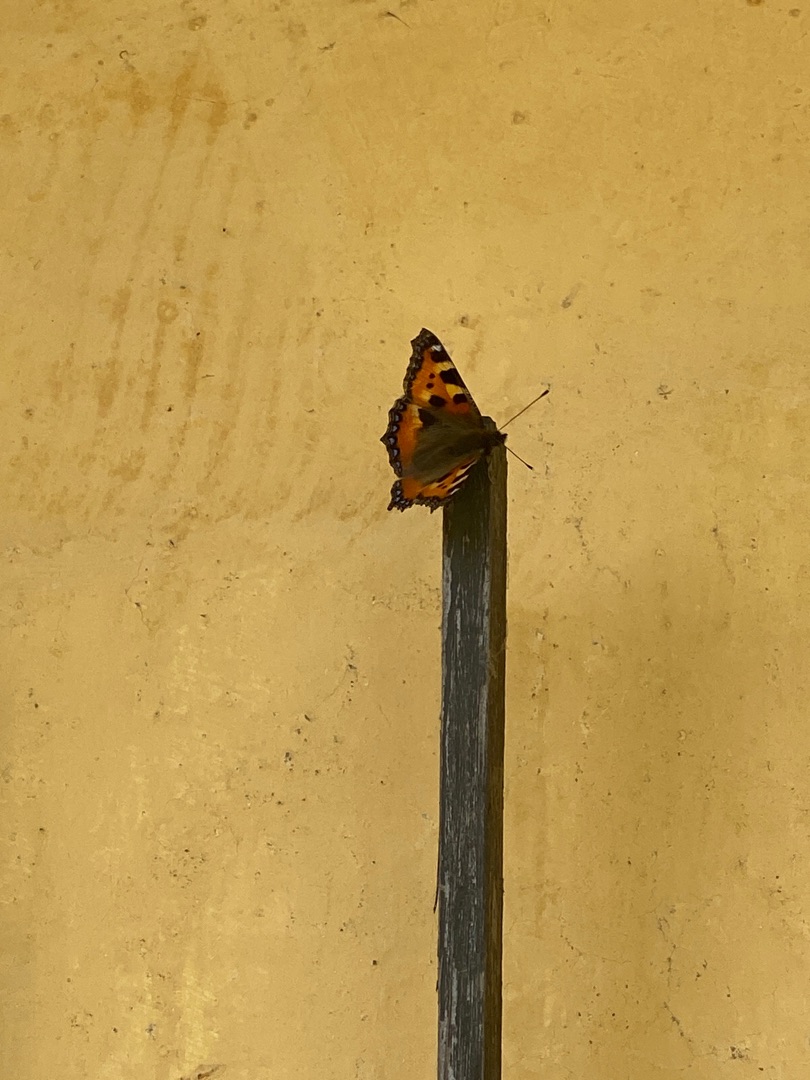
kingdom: Animalia
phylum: Arthropoda
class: Insecta
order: Lepidoptera
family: Nymphalidae
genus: Aglais
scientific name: Aglais urticae
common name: Nældens takvinge
